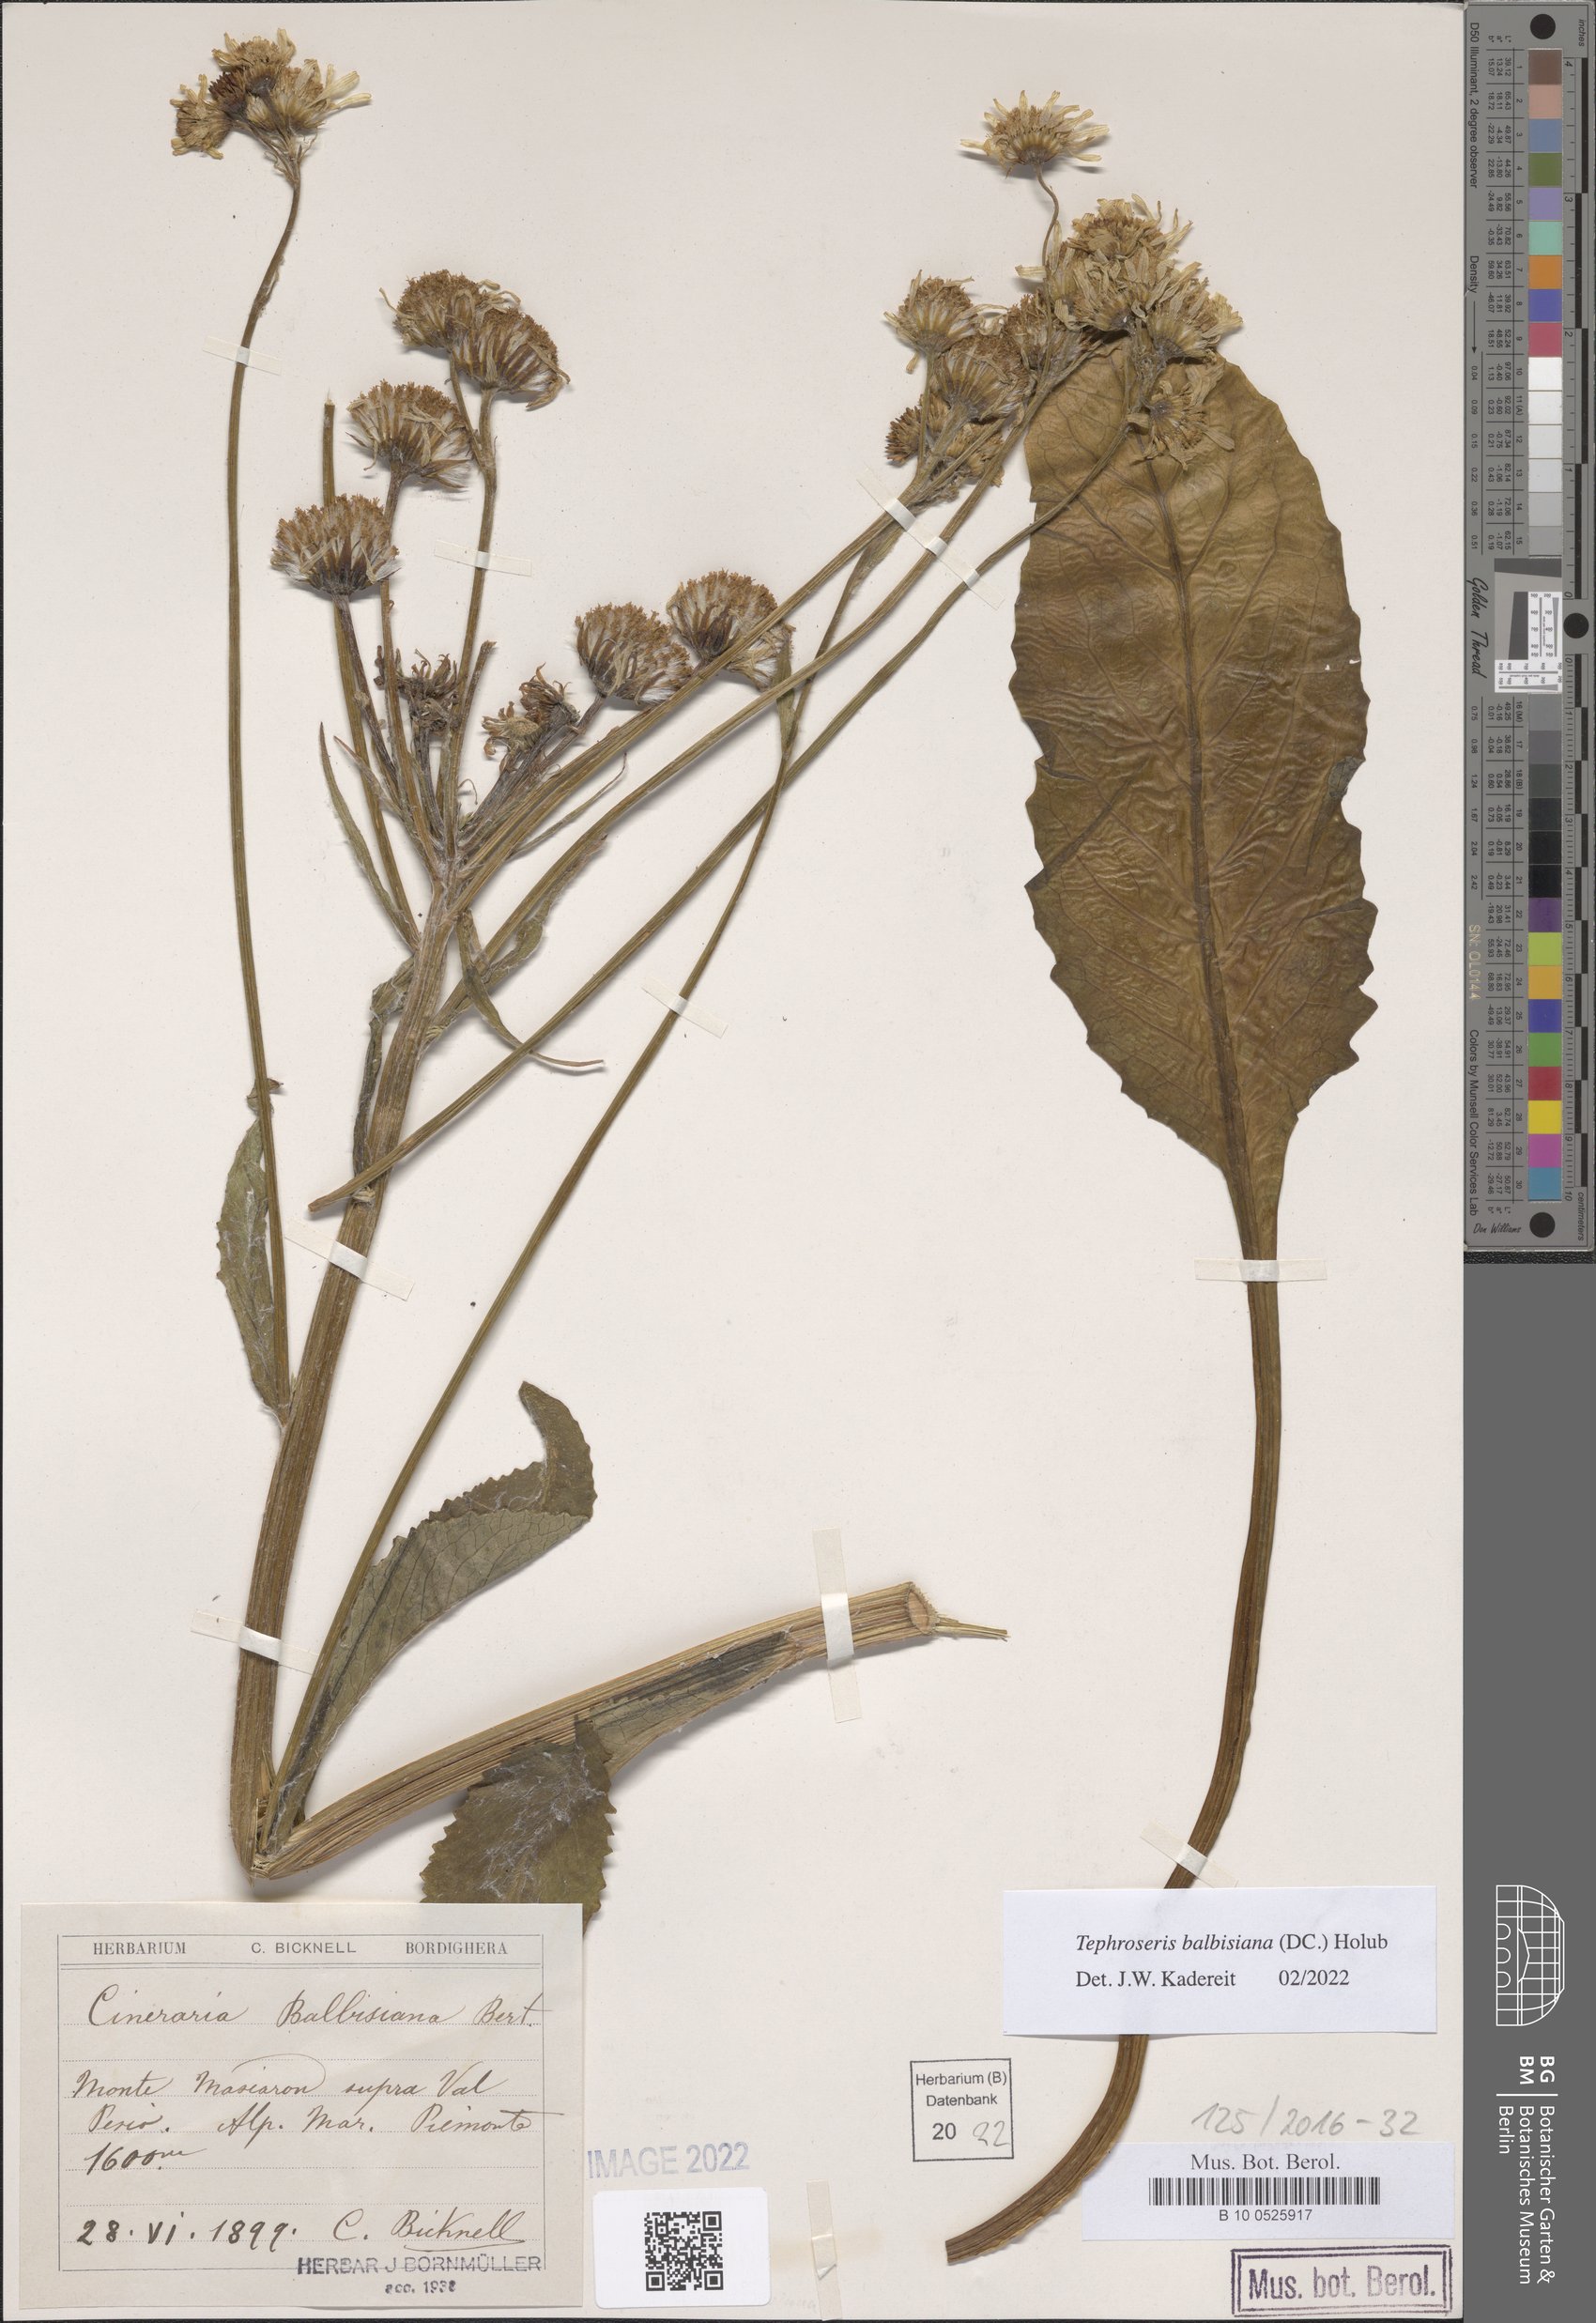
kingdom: Plantae
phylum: Tracheophyta
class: Magnoliopsida
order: Asterales
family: Asteraceae
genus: Tephroseris
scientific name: Tephroseris balbisiana
